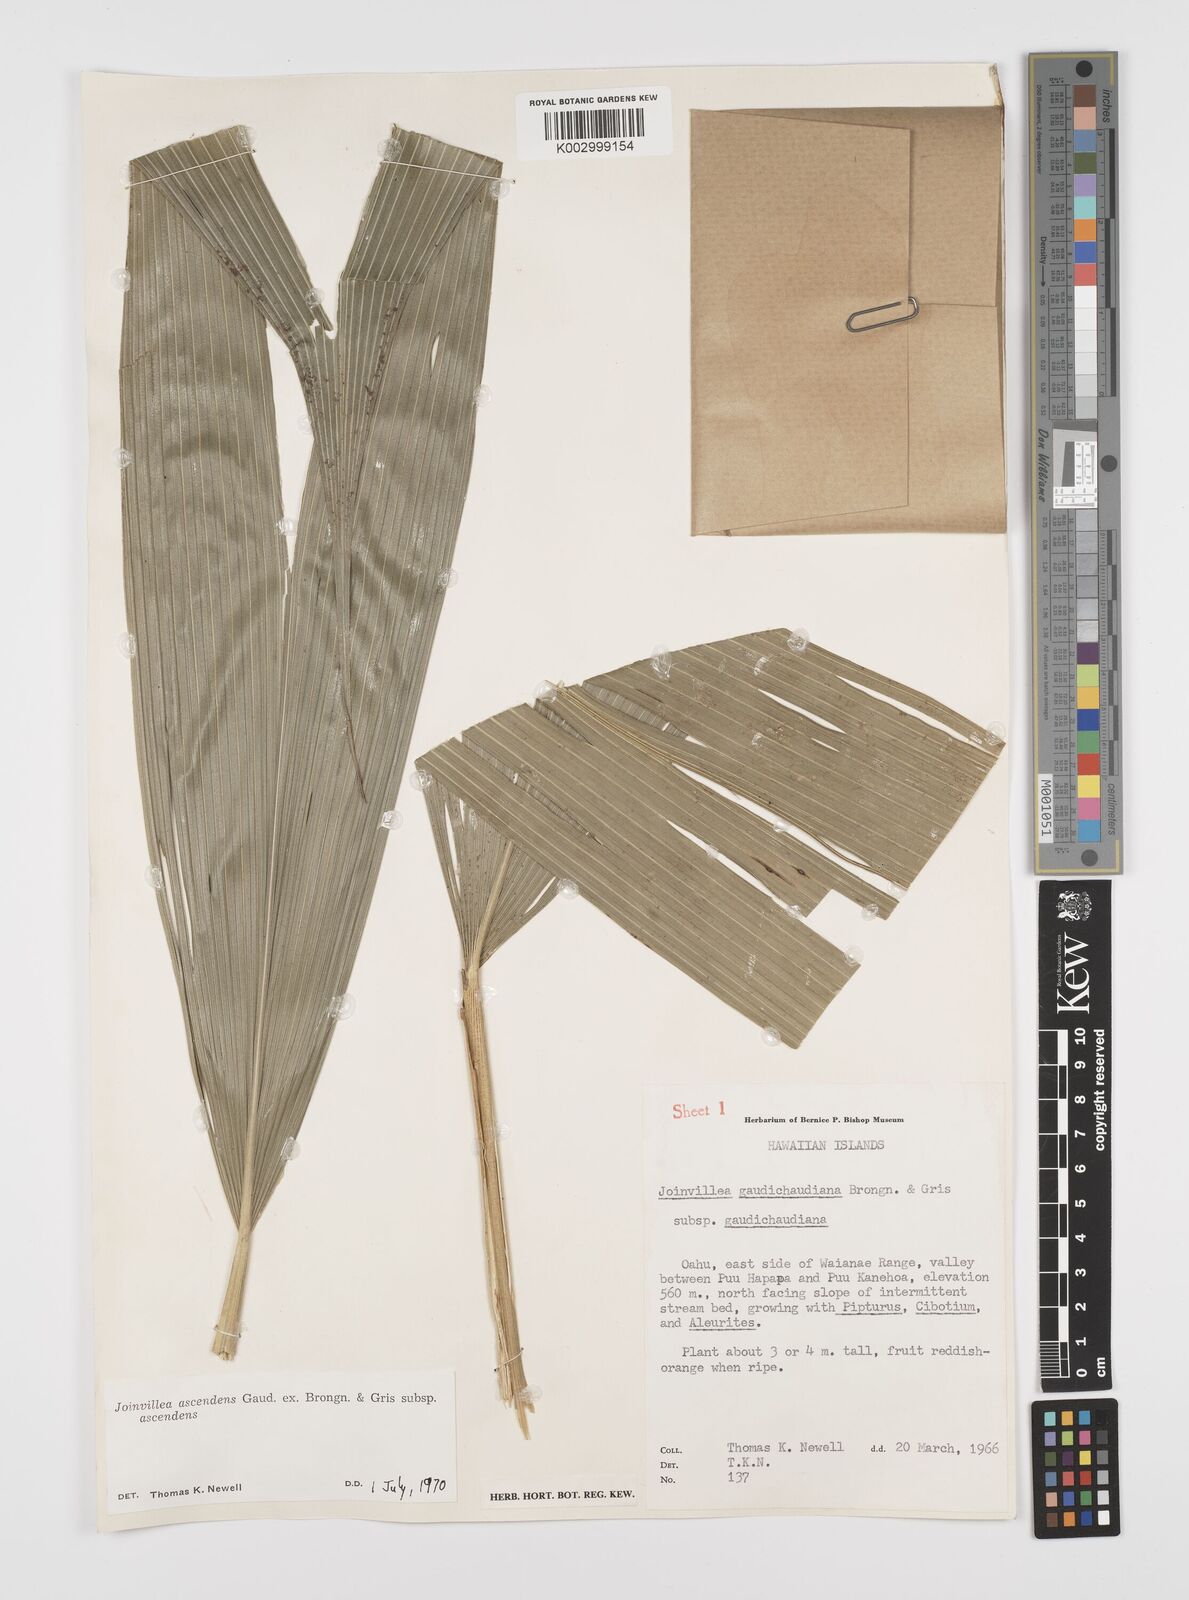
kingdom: Plantae
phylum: Tracheophyta
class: Liliopsida
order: Poales
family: Joinvilleaceae
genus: Joinvillea
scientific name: Joinvillea ascendens
